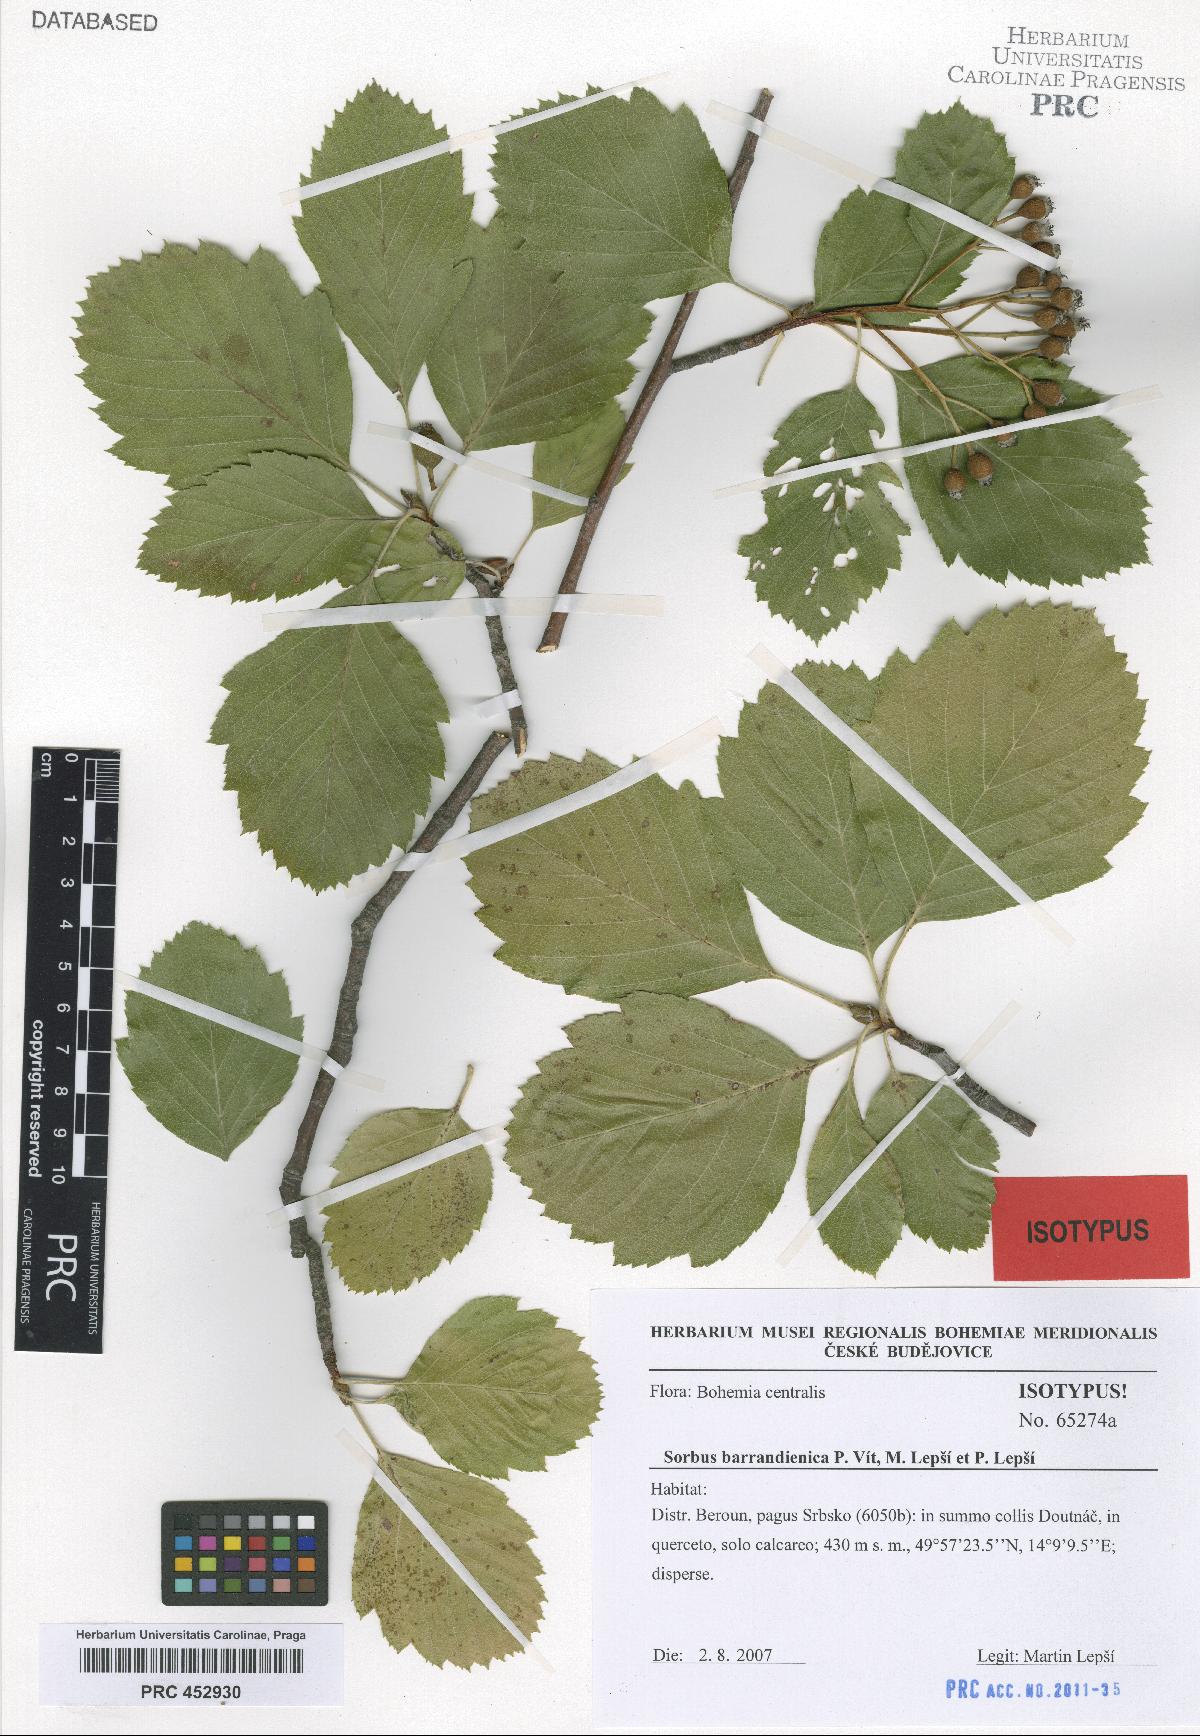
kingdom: Plantae
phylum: Tracheophyta
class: Magnoliopsida
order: Rosales
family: Rosaceae
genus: Karpatiosorbus
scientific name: Karpatiosorbus barrandienica
